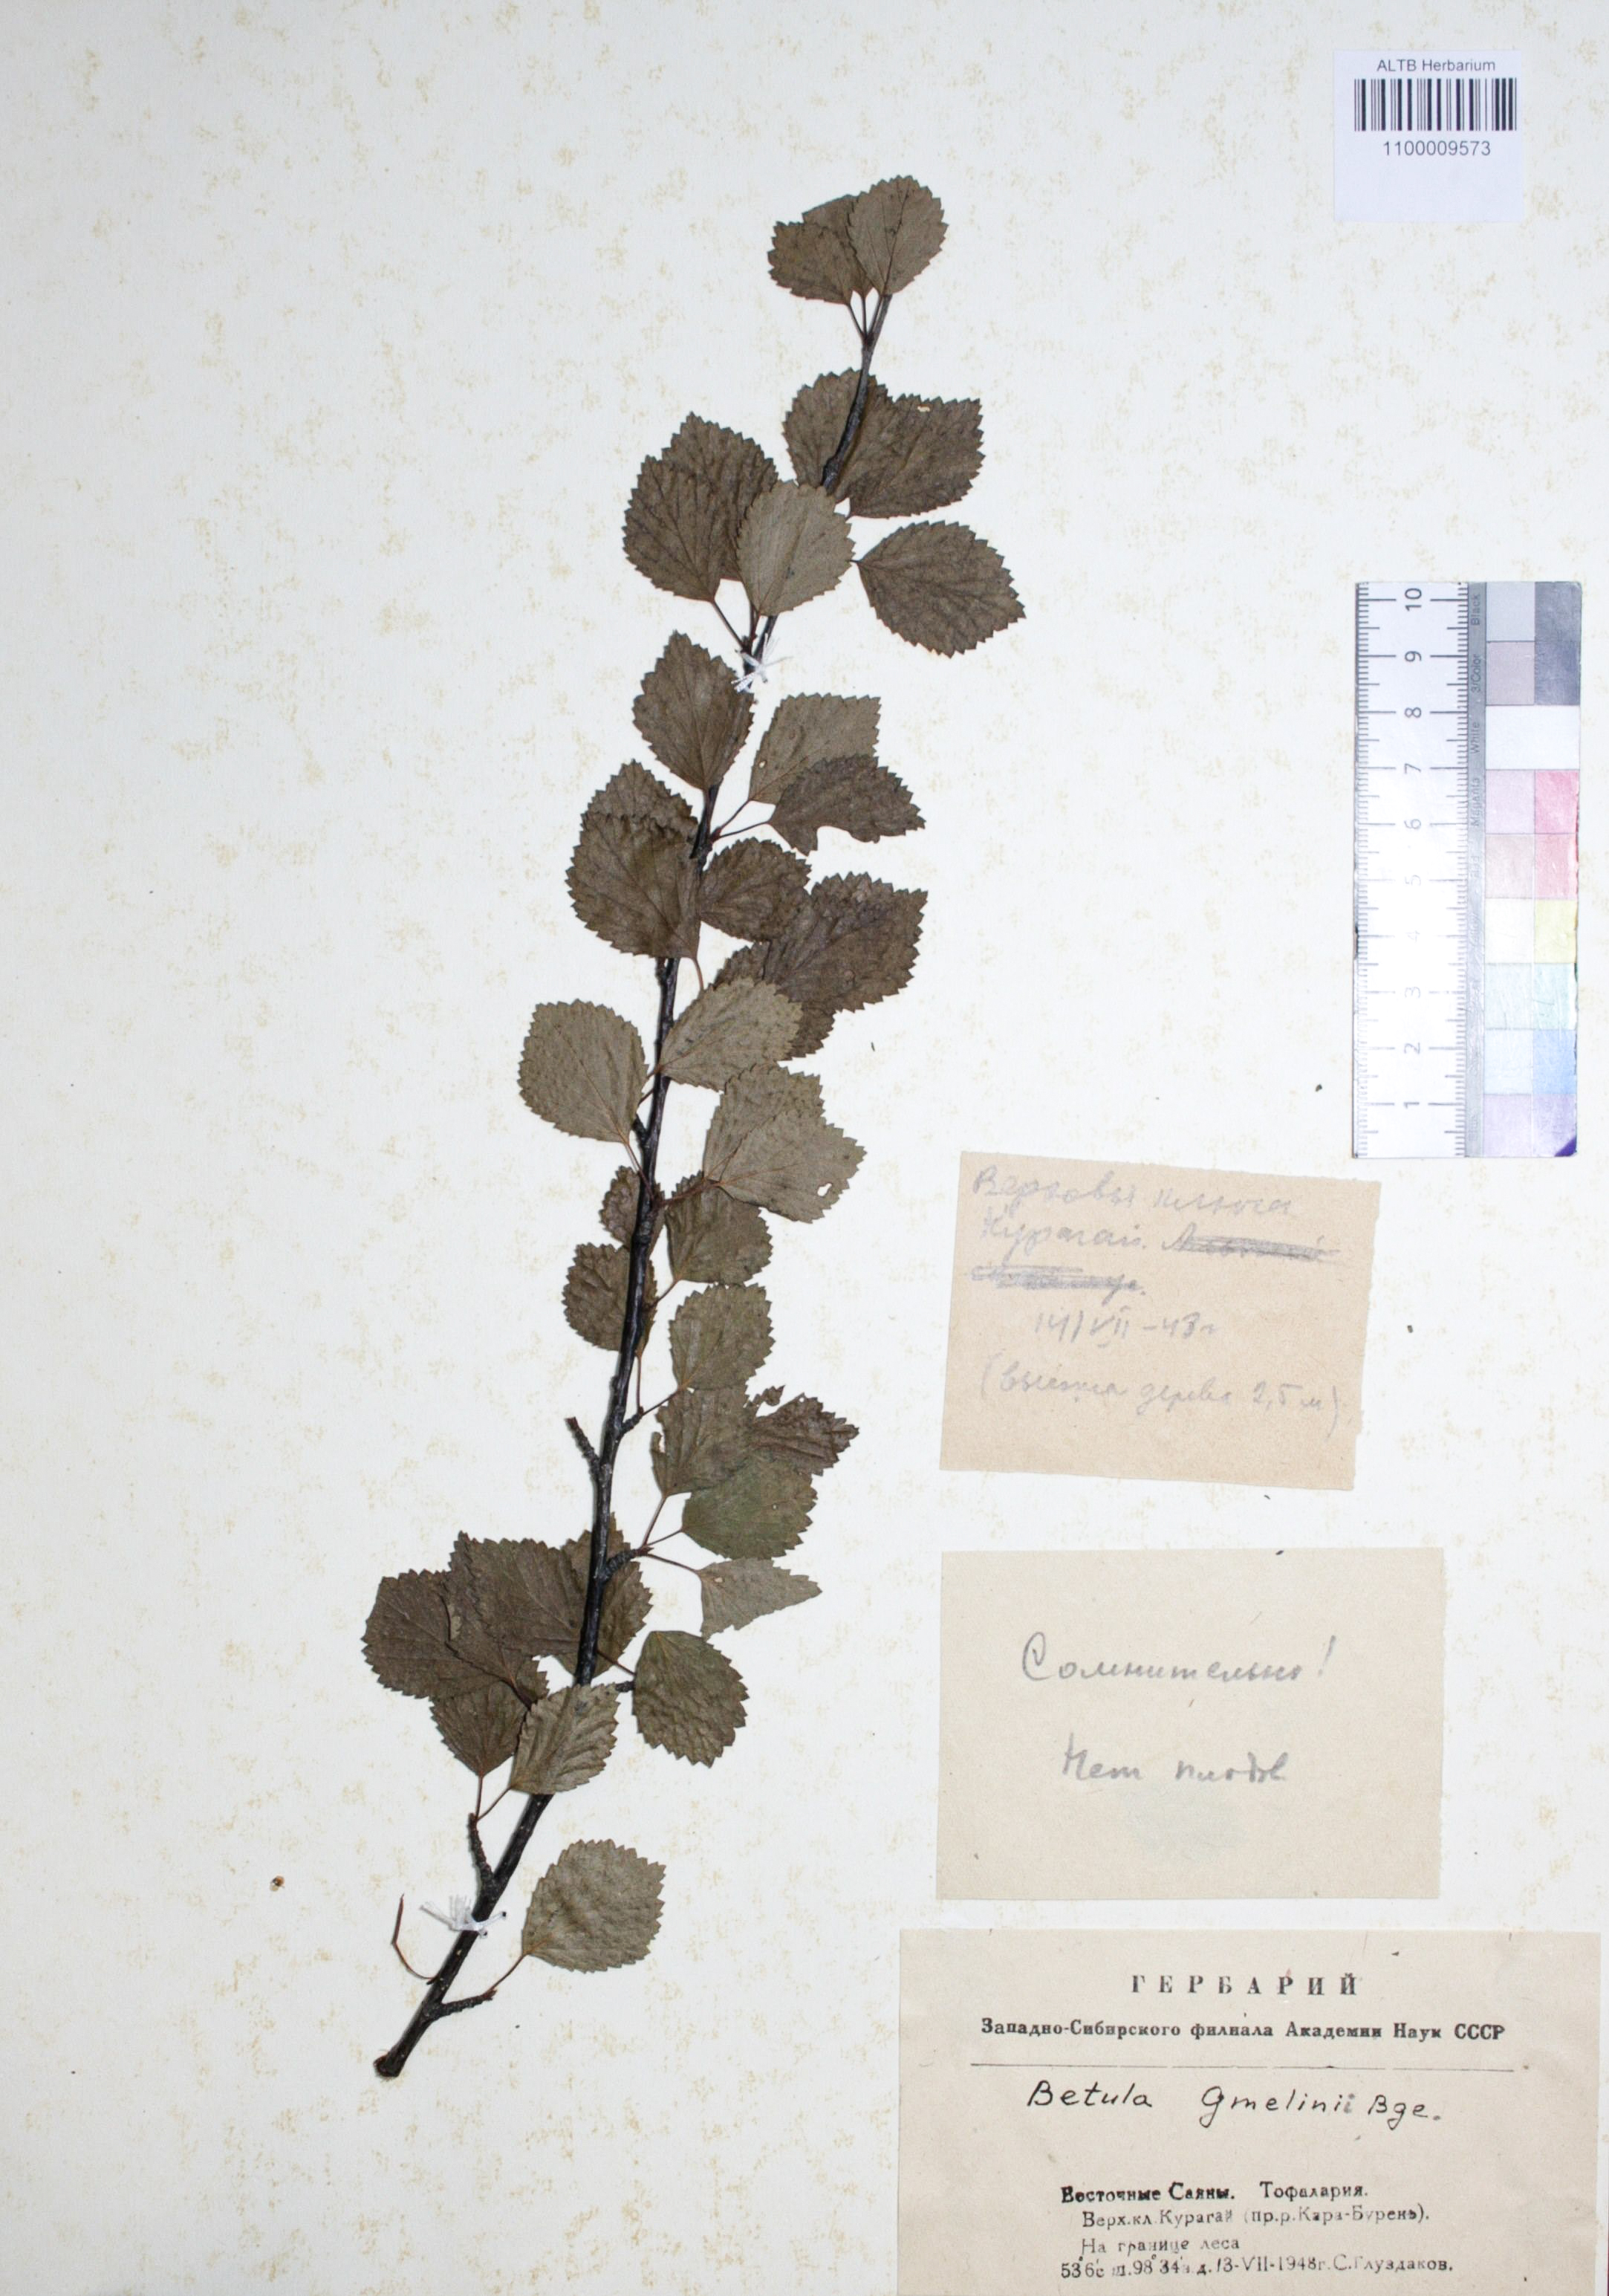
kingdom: Plantae
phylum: Tracheophyta
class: Magnoliopsida
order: Fagales
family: Betulaceae
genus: Betula
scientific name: Betula gmelinii
